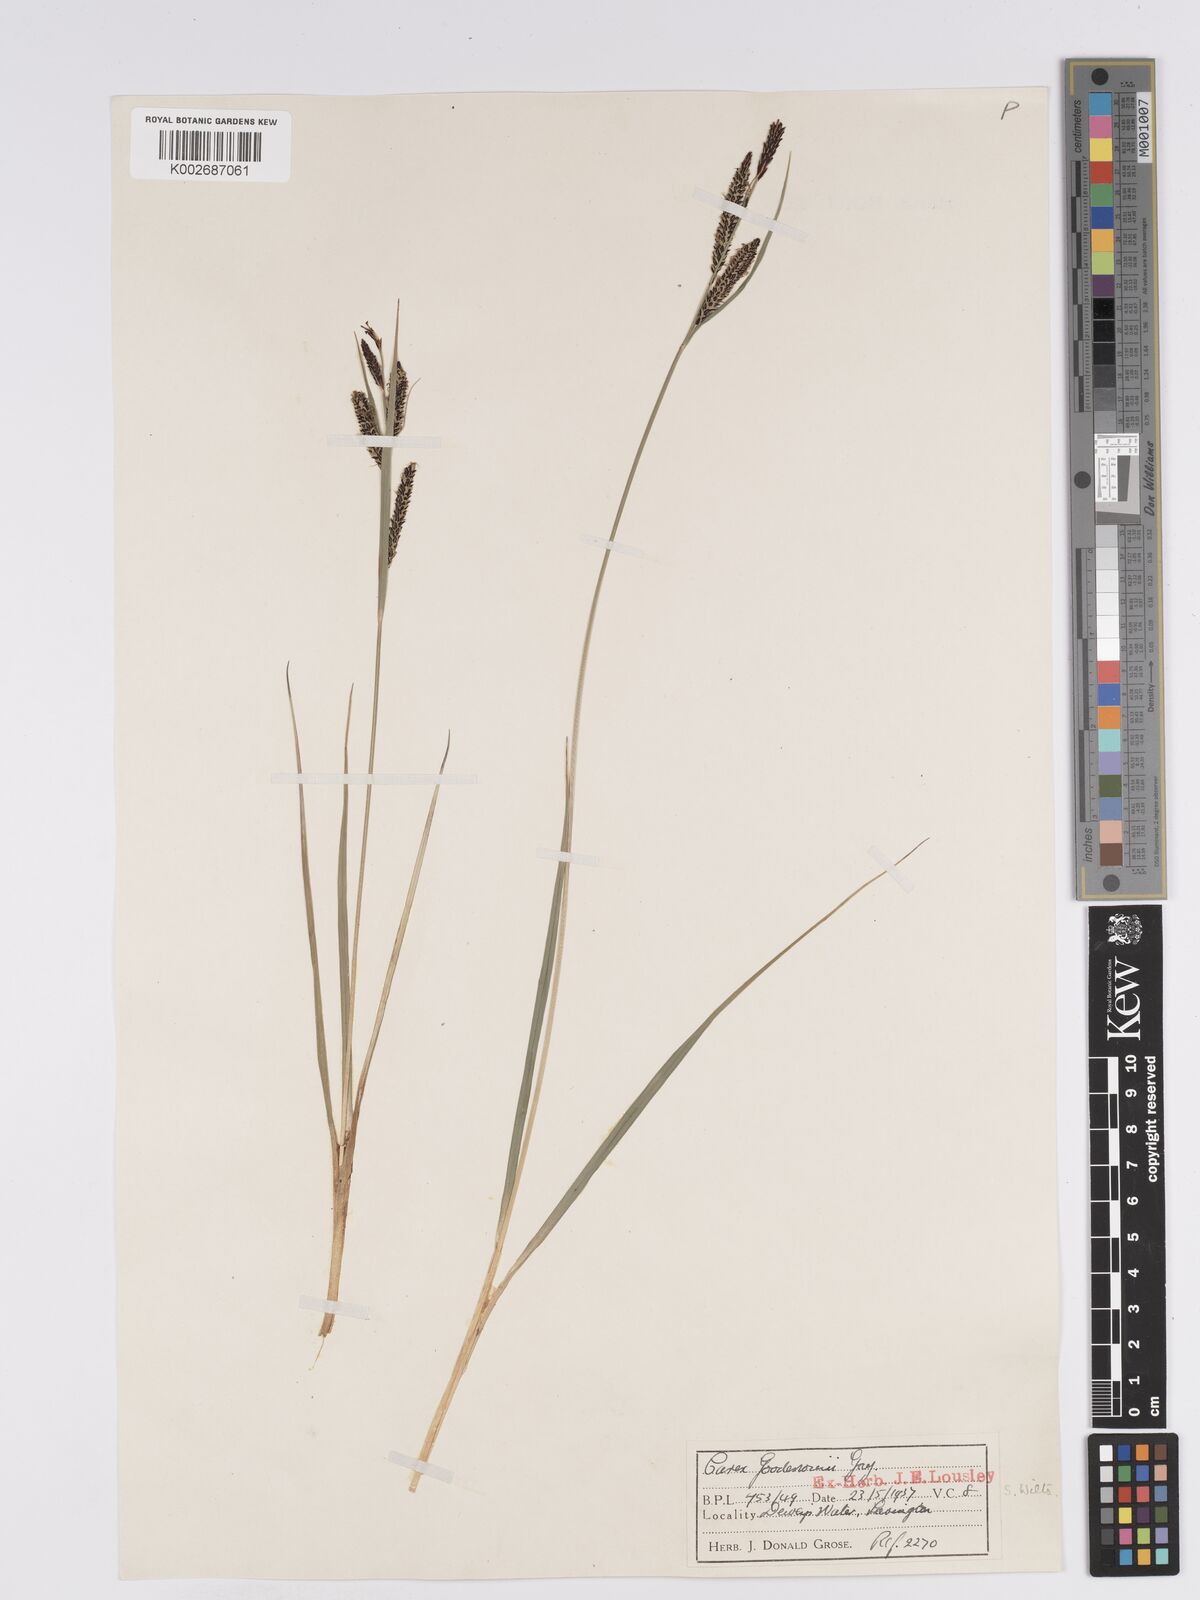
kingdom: Plantae
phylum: Tracheophyta
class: Liliopsida
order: Poales
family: Cyperaceae
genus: Carex
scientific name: Carex nigra
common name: Common sedge
